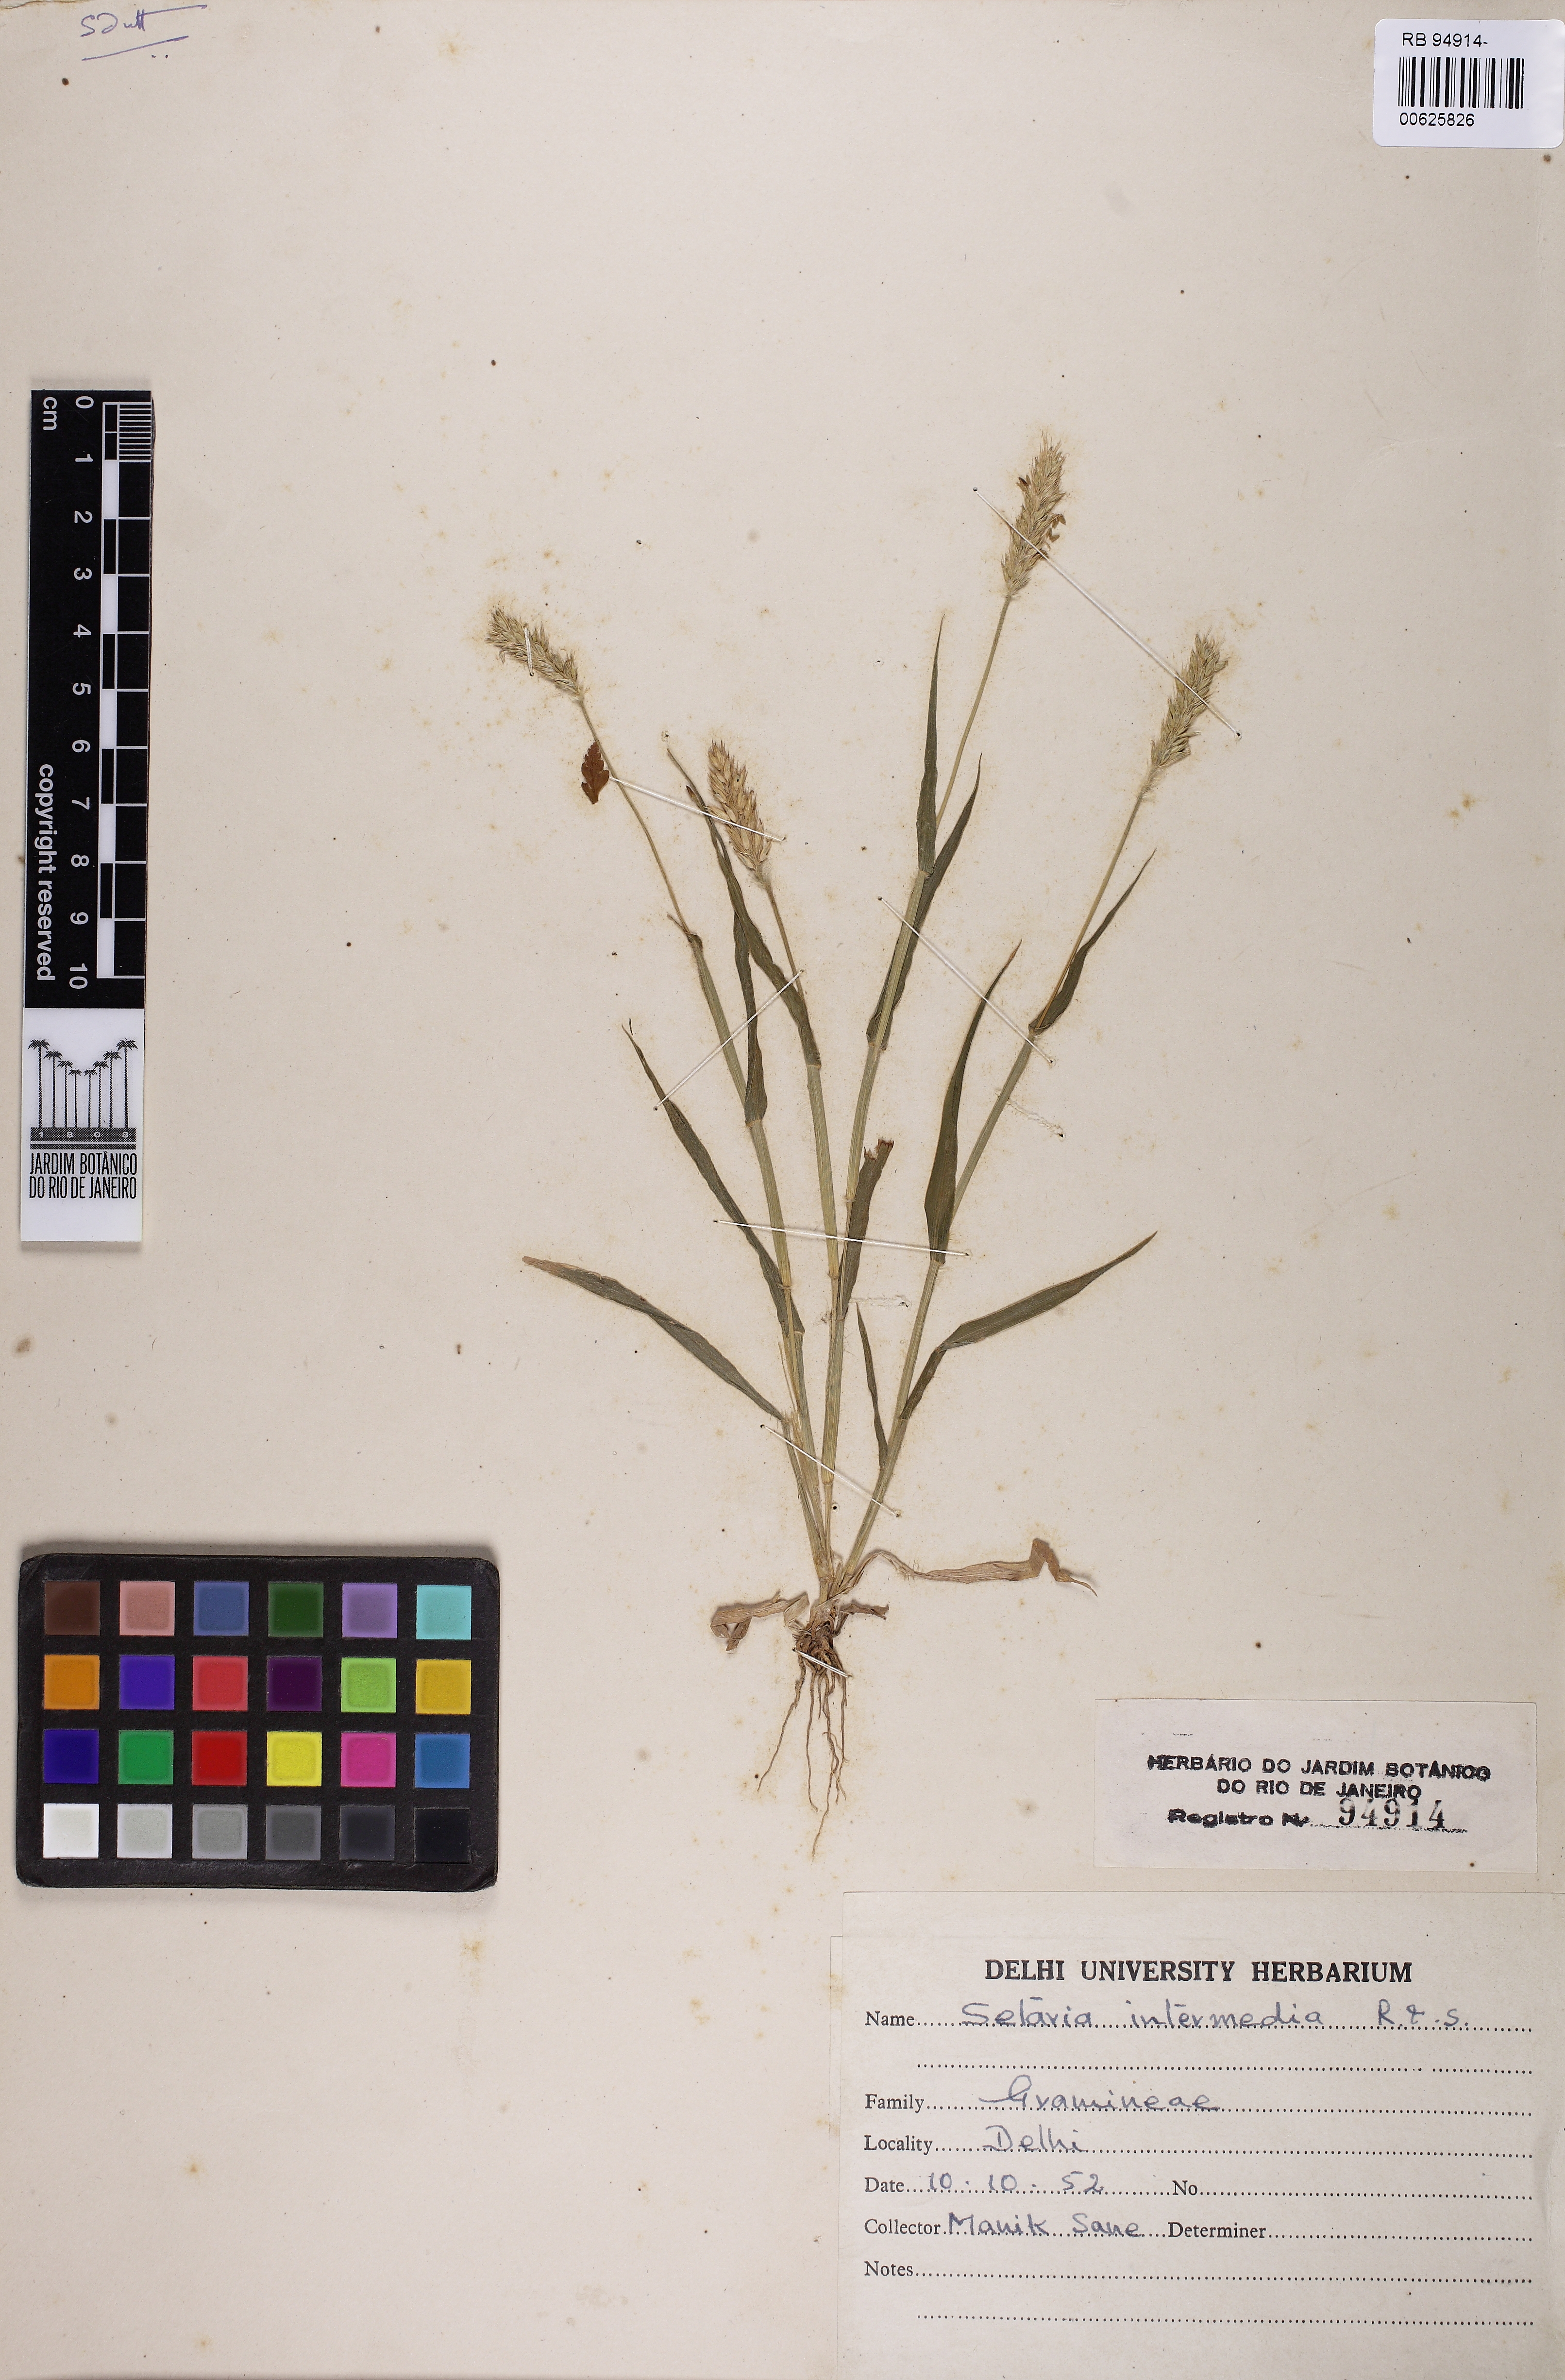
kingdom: Plantae
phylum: Tracheophyta
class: Liliopsida
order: Poales
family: Poaceae
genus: Setaria
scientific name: Setaria intermedia
